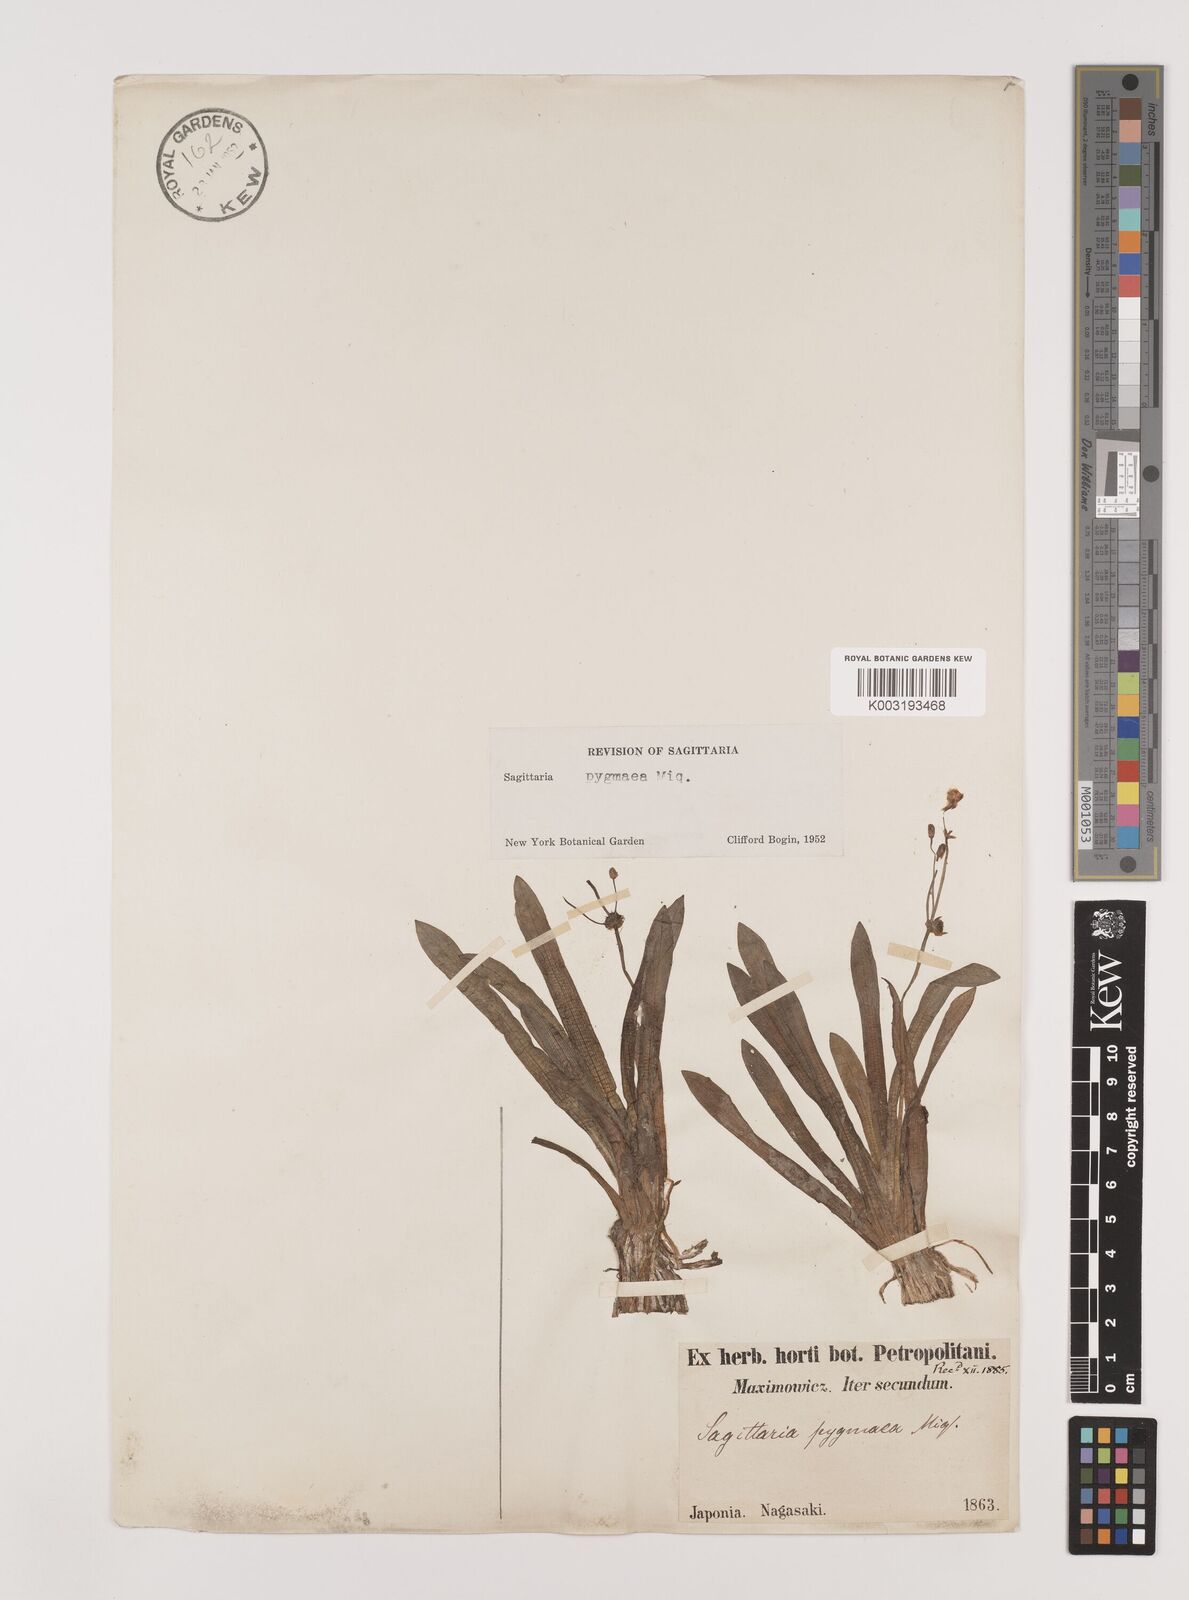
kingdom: Plantae
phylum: Tracheophyta
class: Liliopsida
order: Alismatales
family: Alismataceae
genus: Sagittaria
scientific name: Sagittaria pygmaea
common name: Pygmy arrowhead
